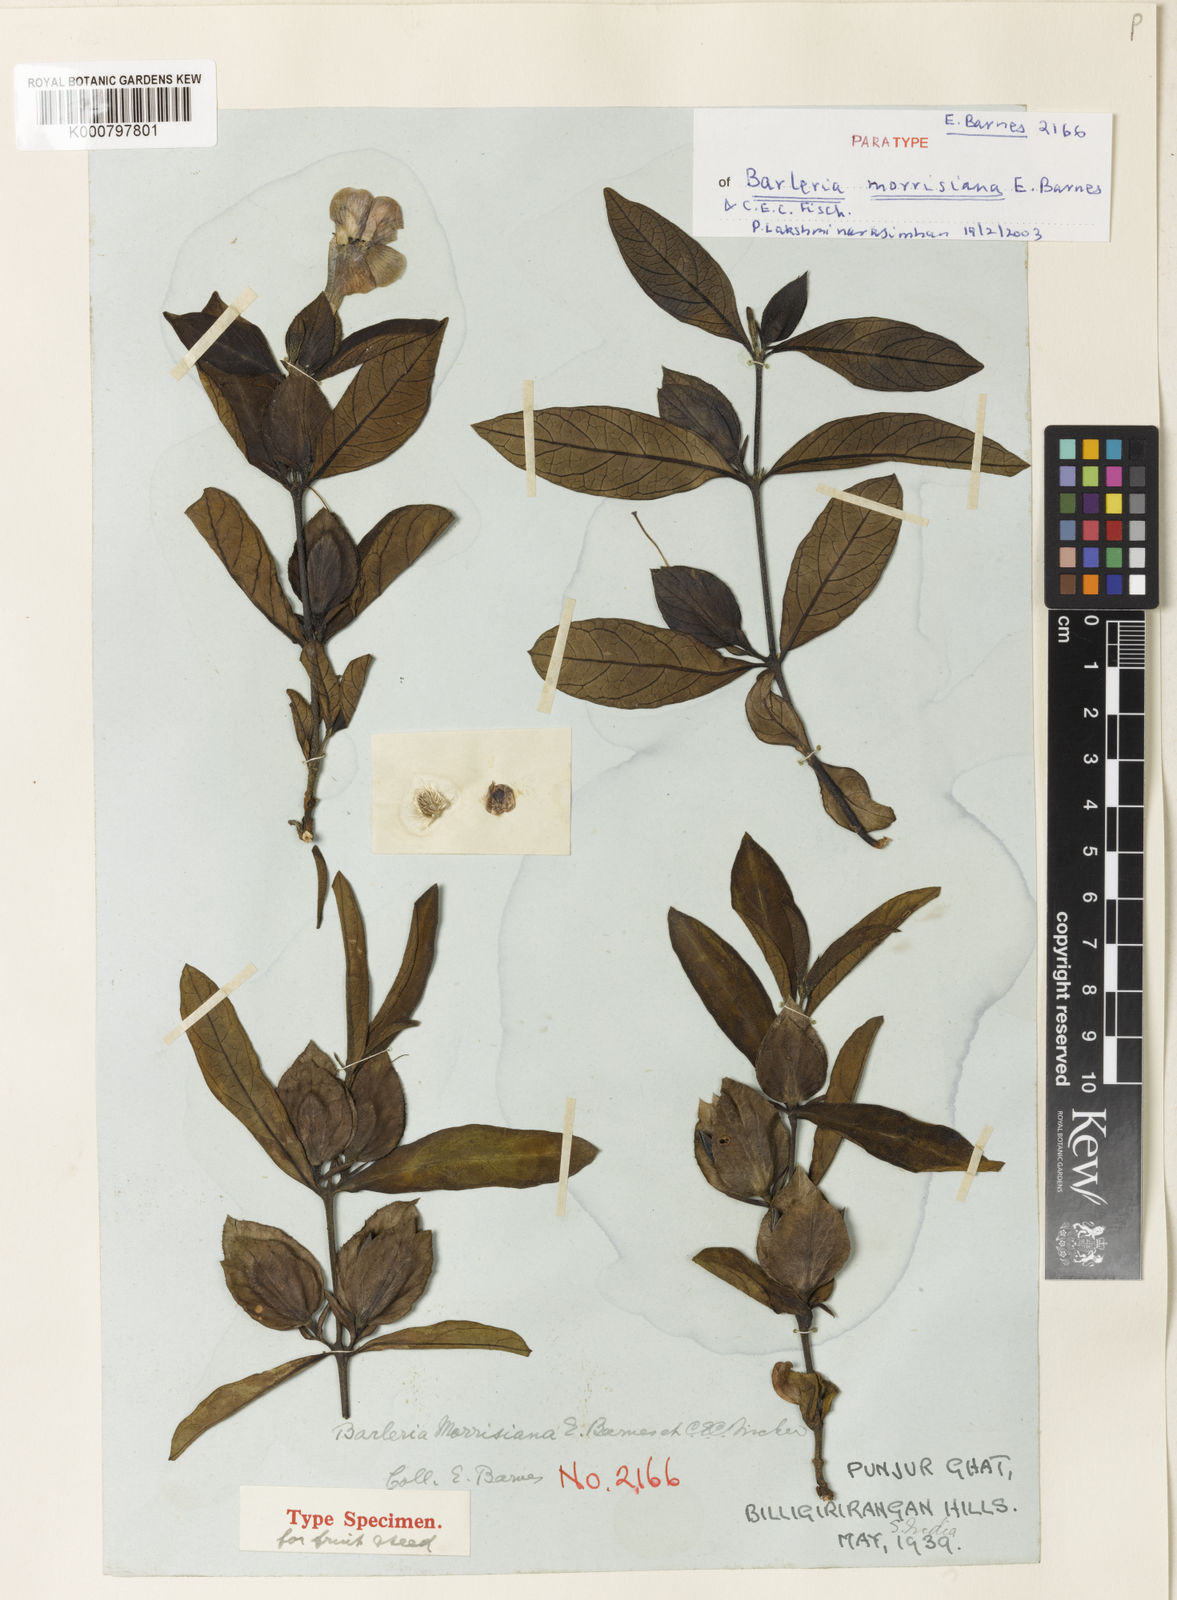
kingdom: Plantae
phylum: Tracheophyta
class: Magnoliopsida
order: Lamiales
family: Acanthaceae
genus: Barleria
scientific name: Barleria montana
